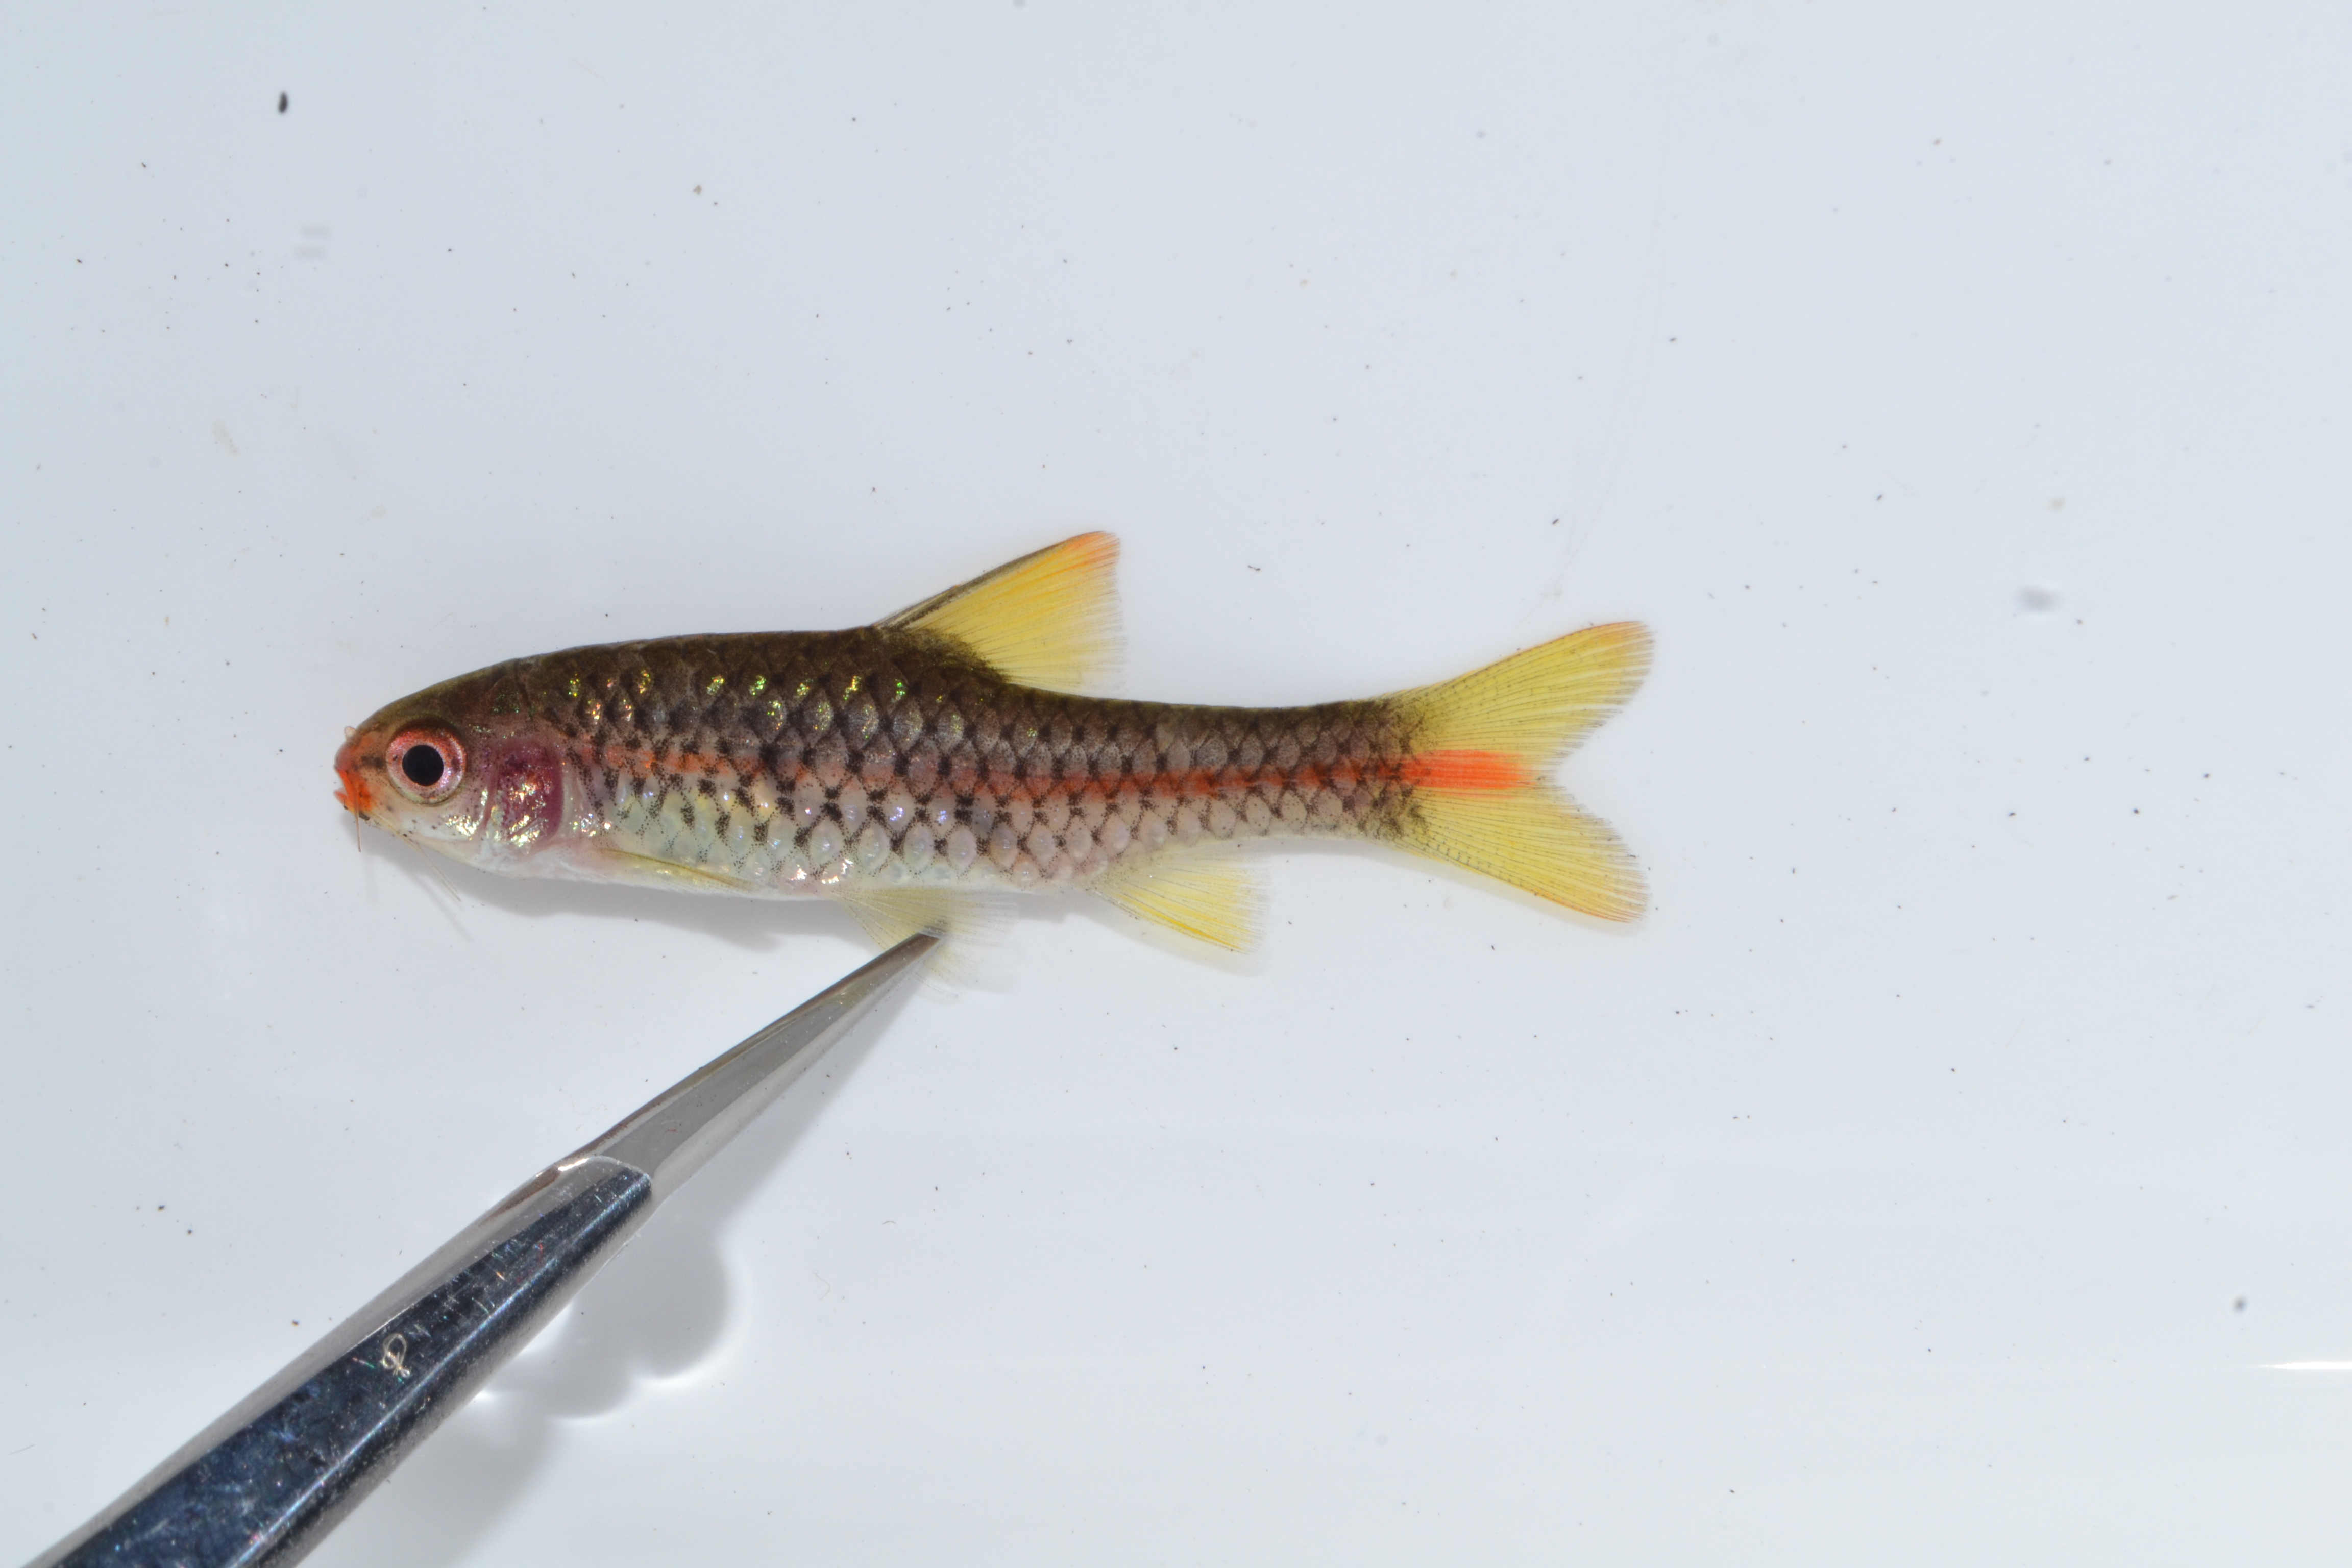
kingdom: Animalia
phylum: Chordata
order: Cypriniformes
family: Cyprinidae
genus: Enteromius
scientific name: Enteromius chicapaensis
